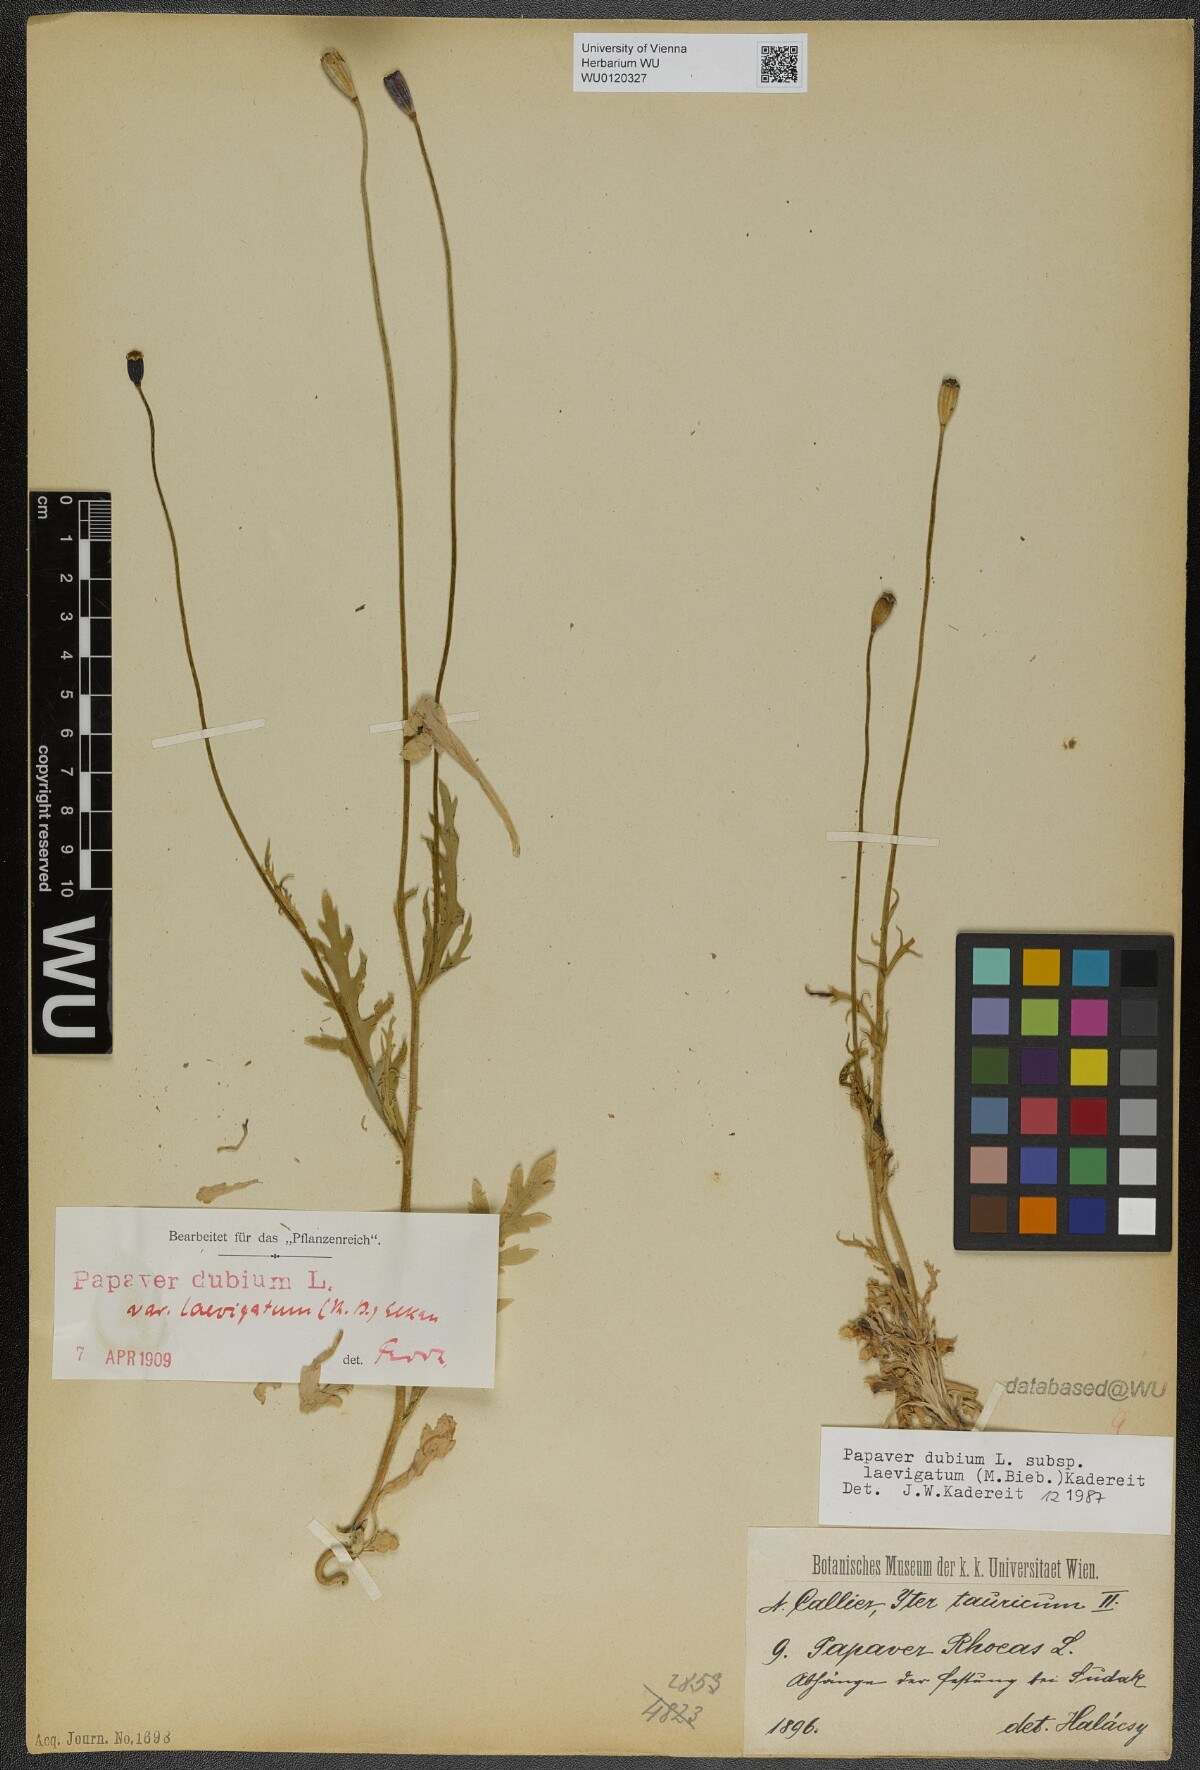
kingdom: Plantae
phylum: Tracheophyta
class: Magnoliopsida
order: Ranunculales
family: Papaveraceae
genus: Papaver
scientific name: Papaver laevigatum
